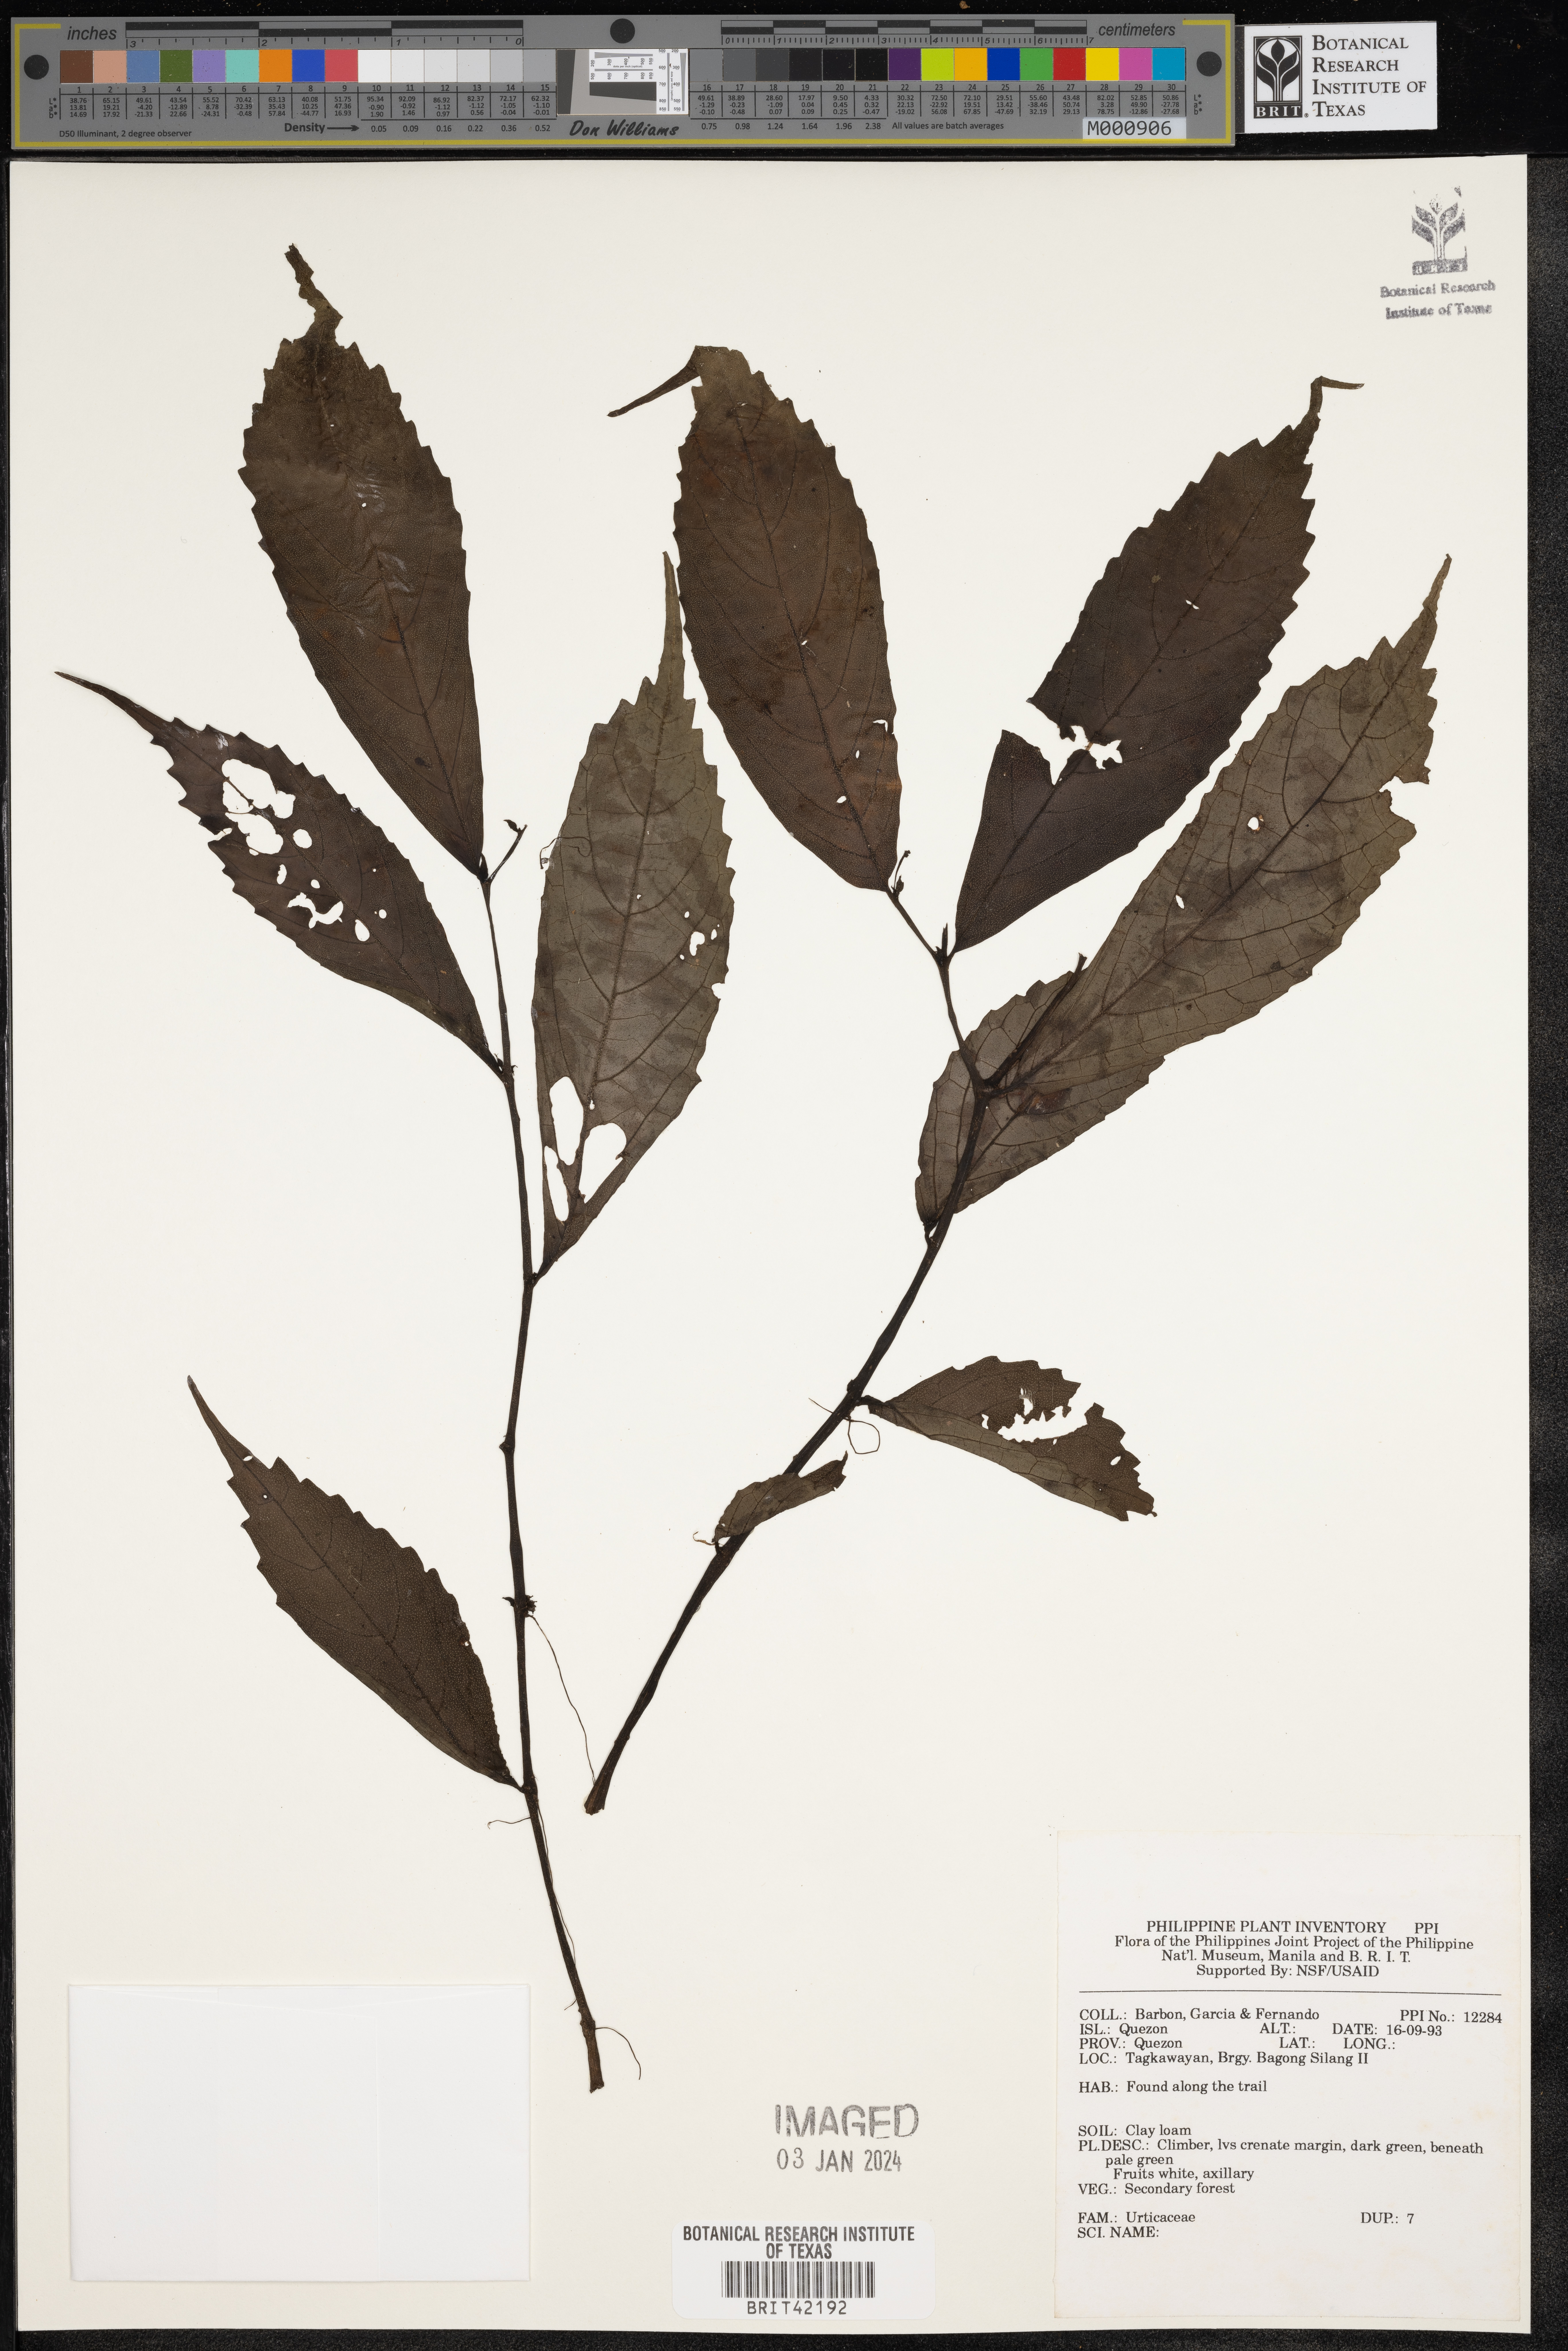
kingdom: Plantae
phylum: Tracheophyta
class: Magnoliopsida
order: Rosales
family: Urticaceae
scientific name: Urticaceae
